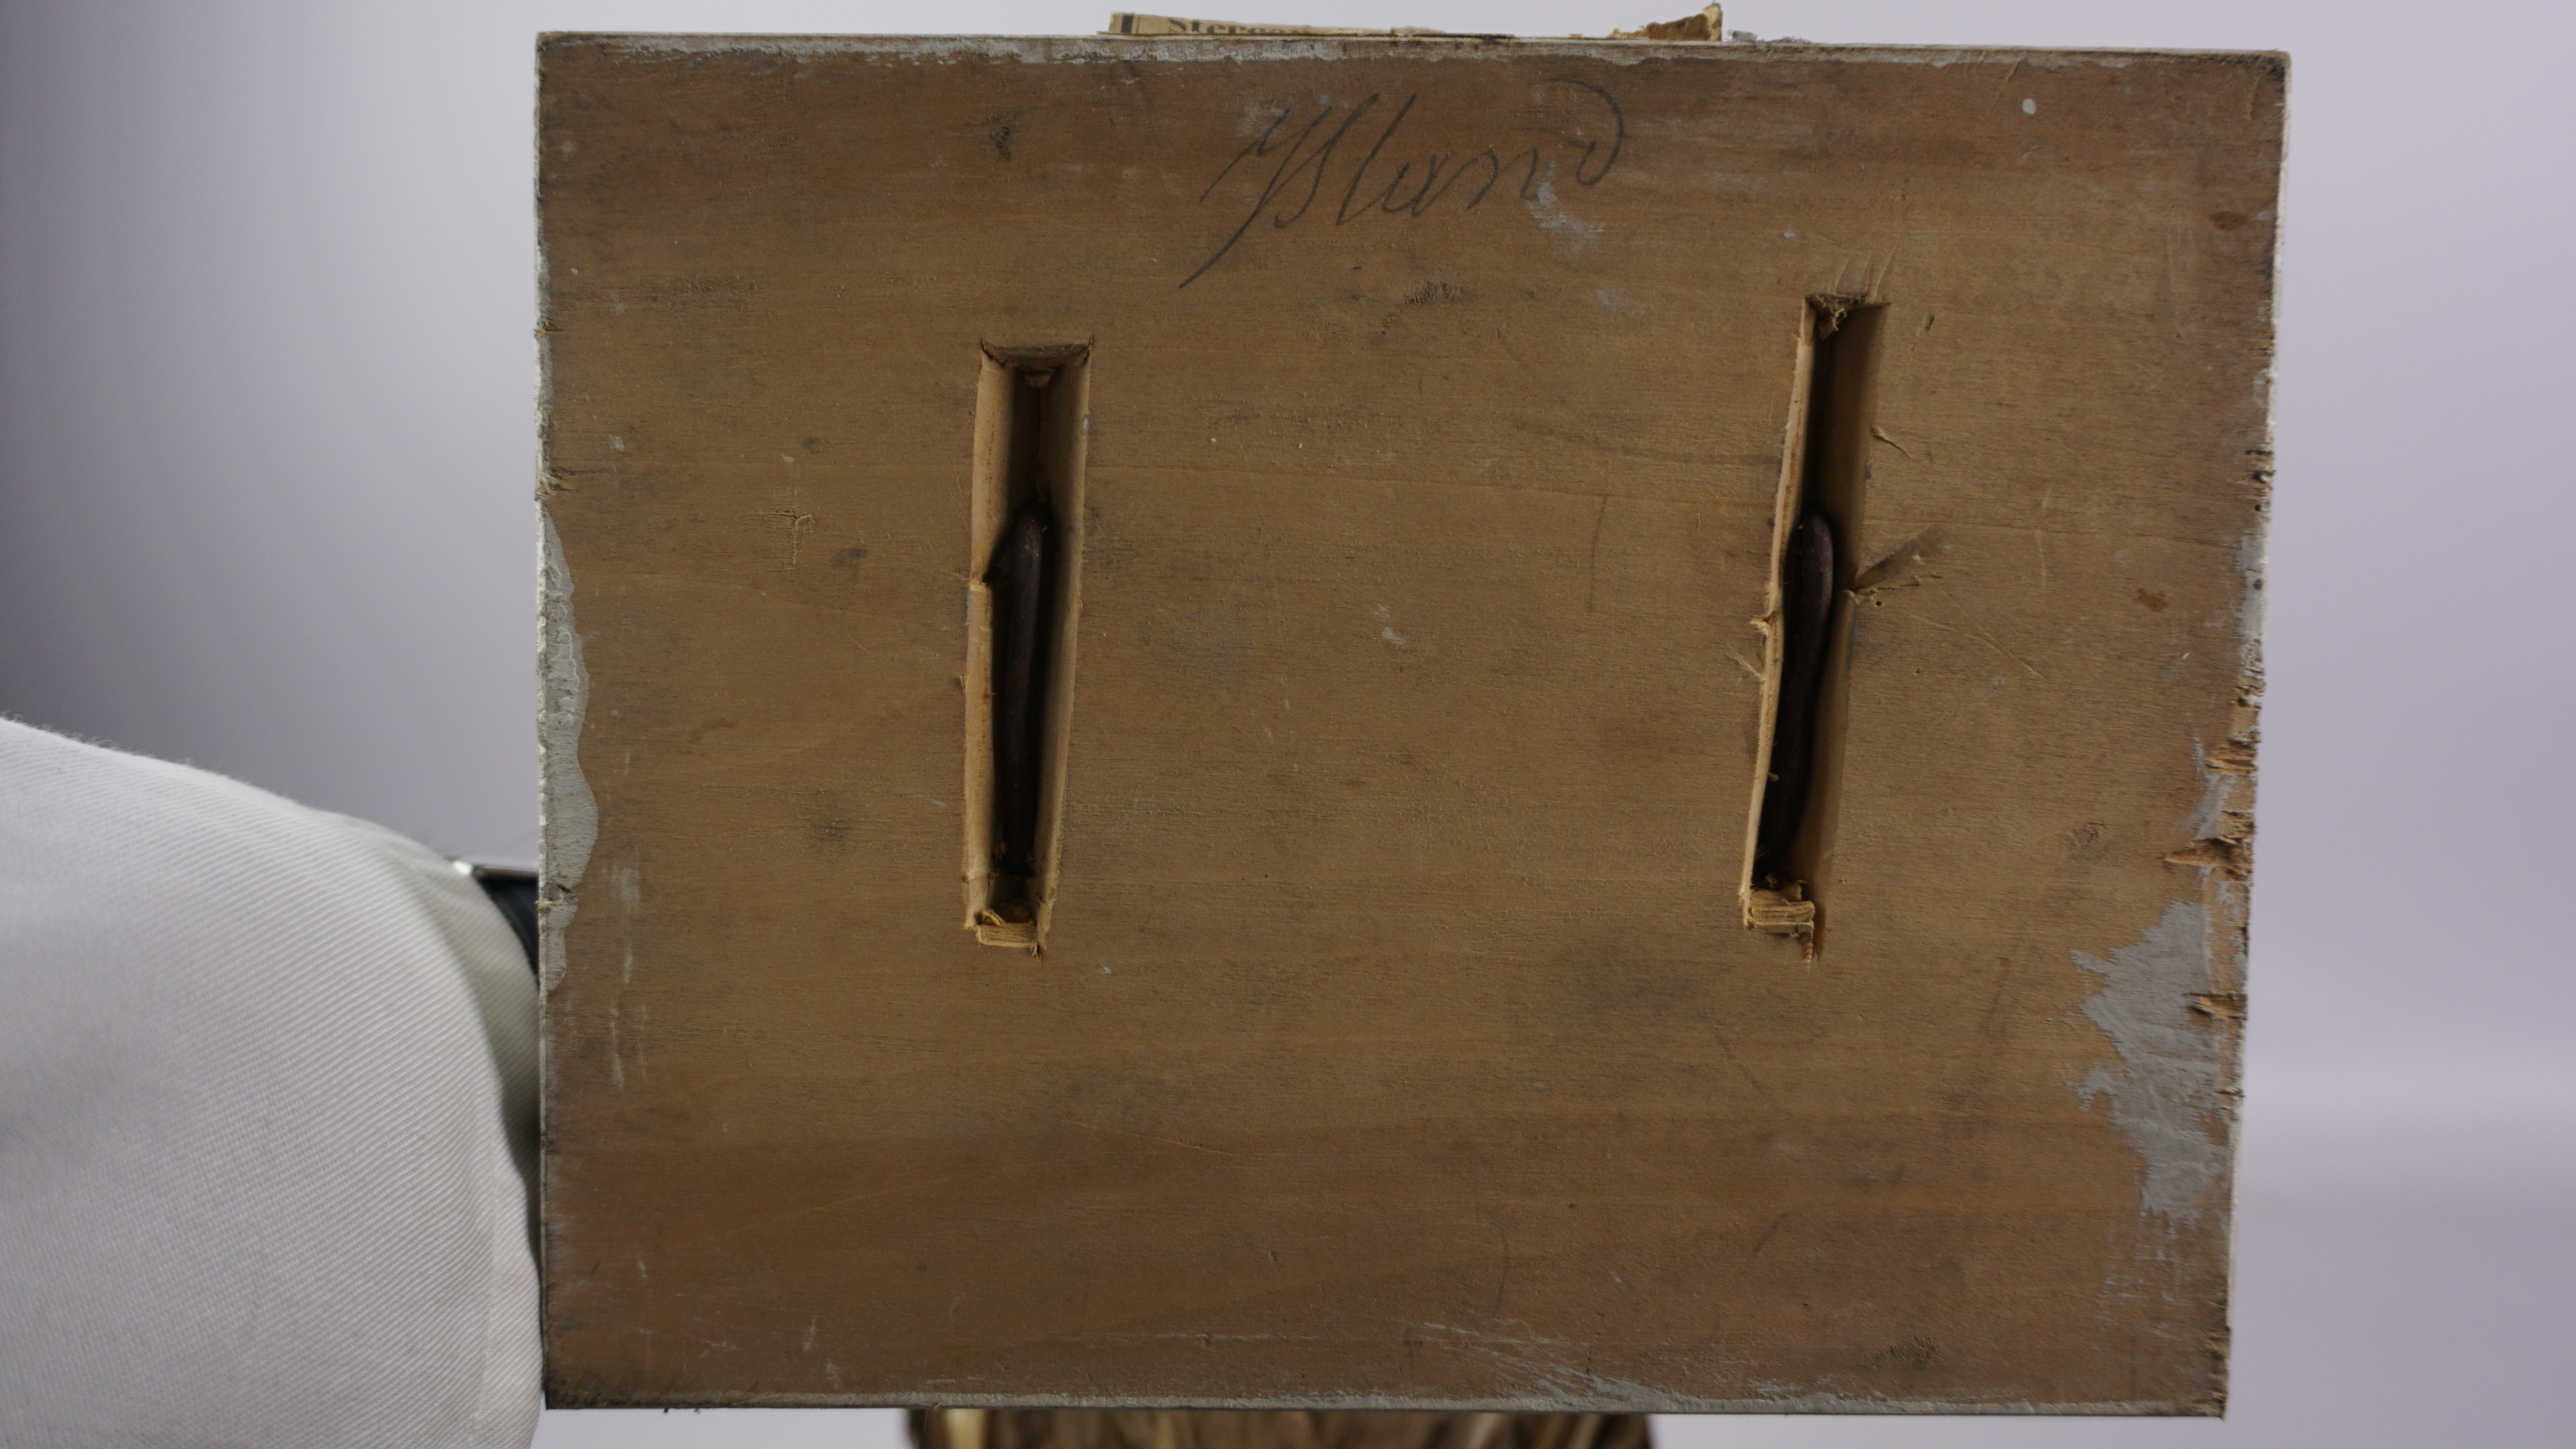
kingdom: Animalia
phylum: Chordata
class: Aves
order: Charadriiformes
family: Stercorariidae
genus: Stercorarius
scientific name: Stercorarius skua
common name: Great skua
